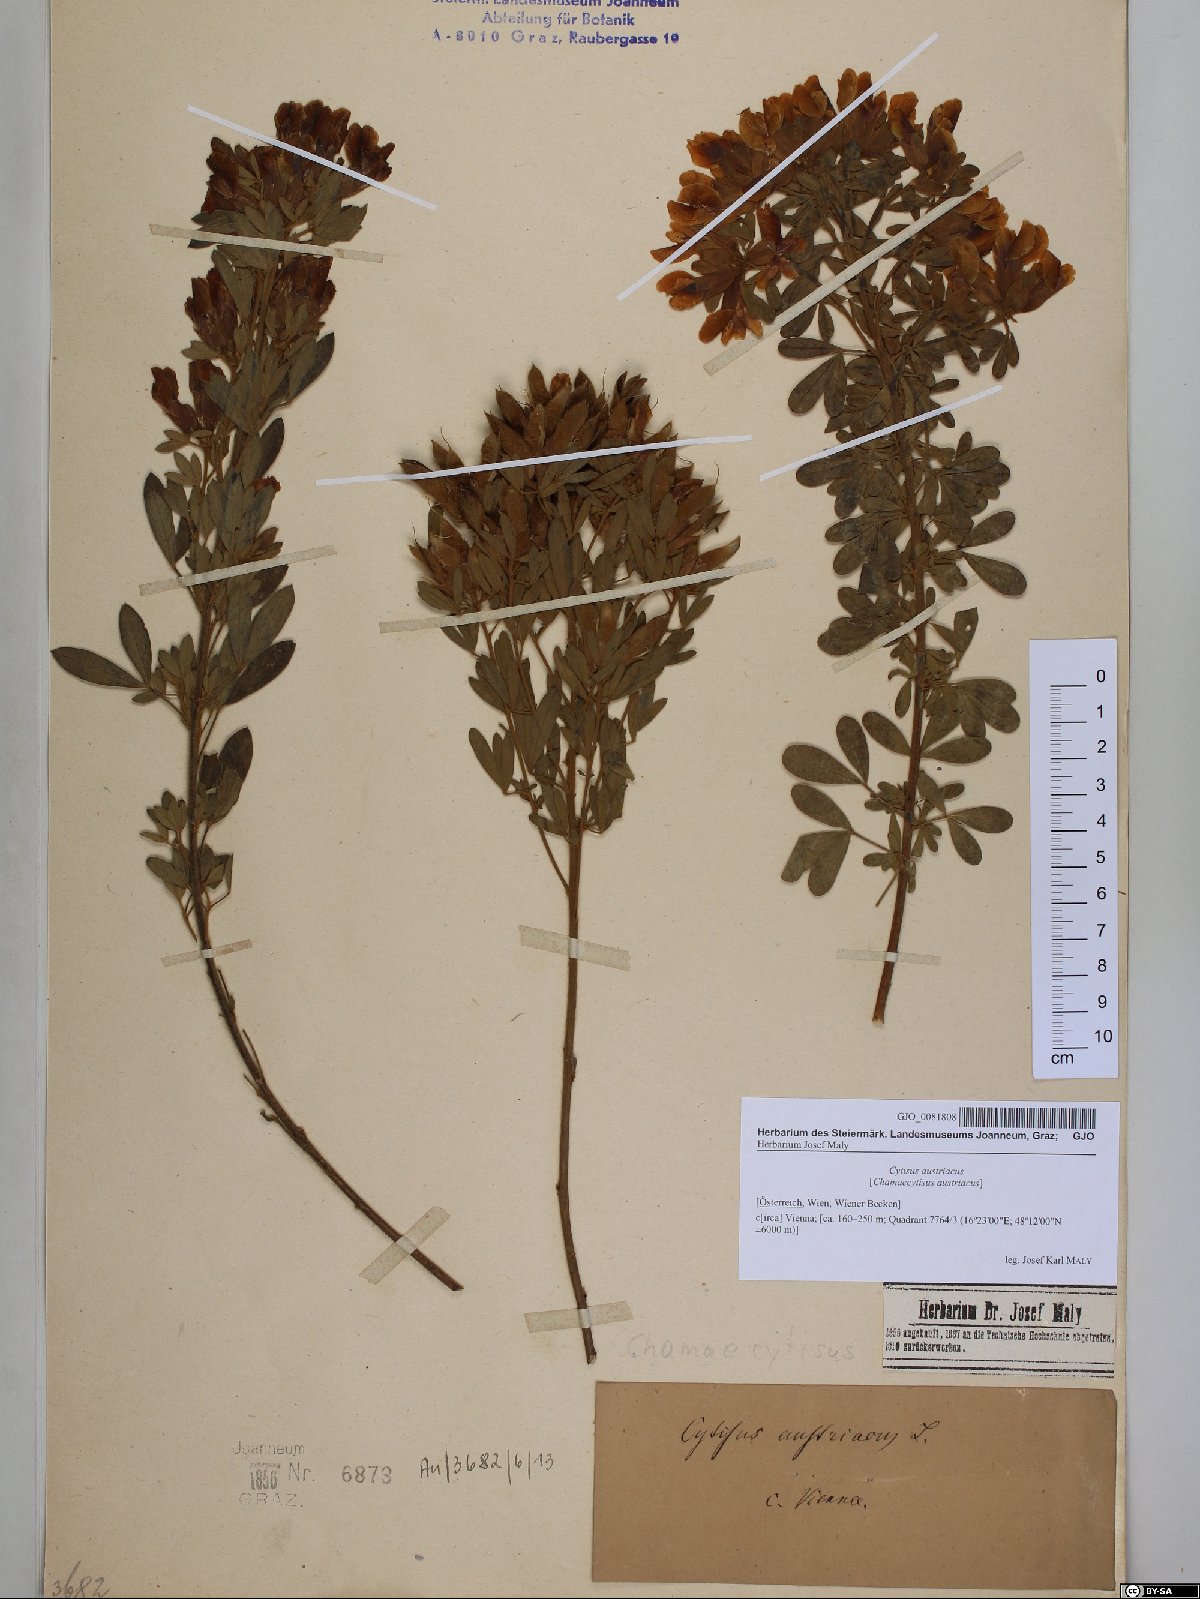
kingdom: Plantae
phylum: Tracheophyta
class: Magnoliopsida
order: Fabales
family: Fabaceae
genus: Chamaecytisus
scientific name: Chamaecytisus austriacus
